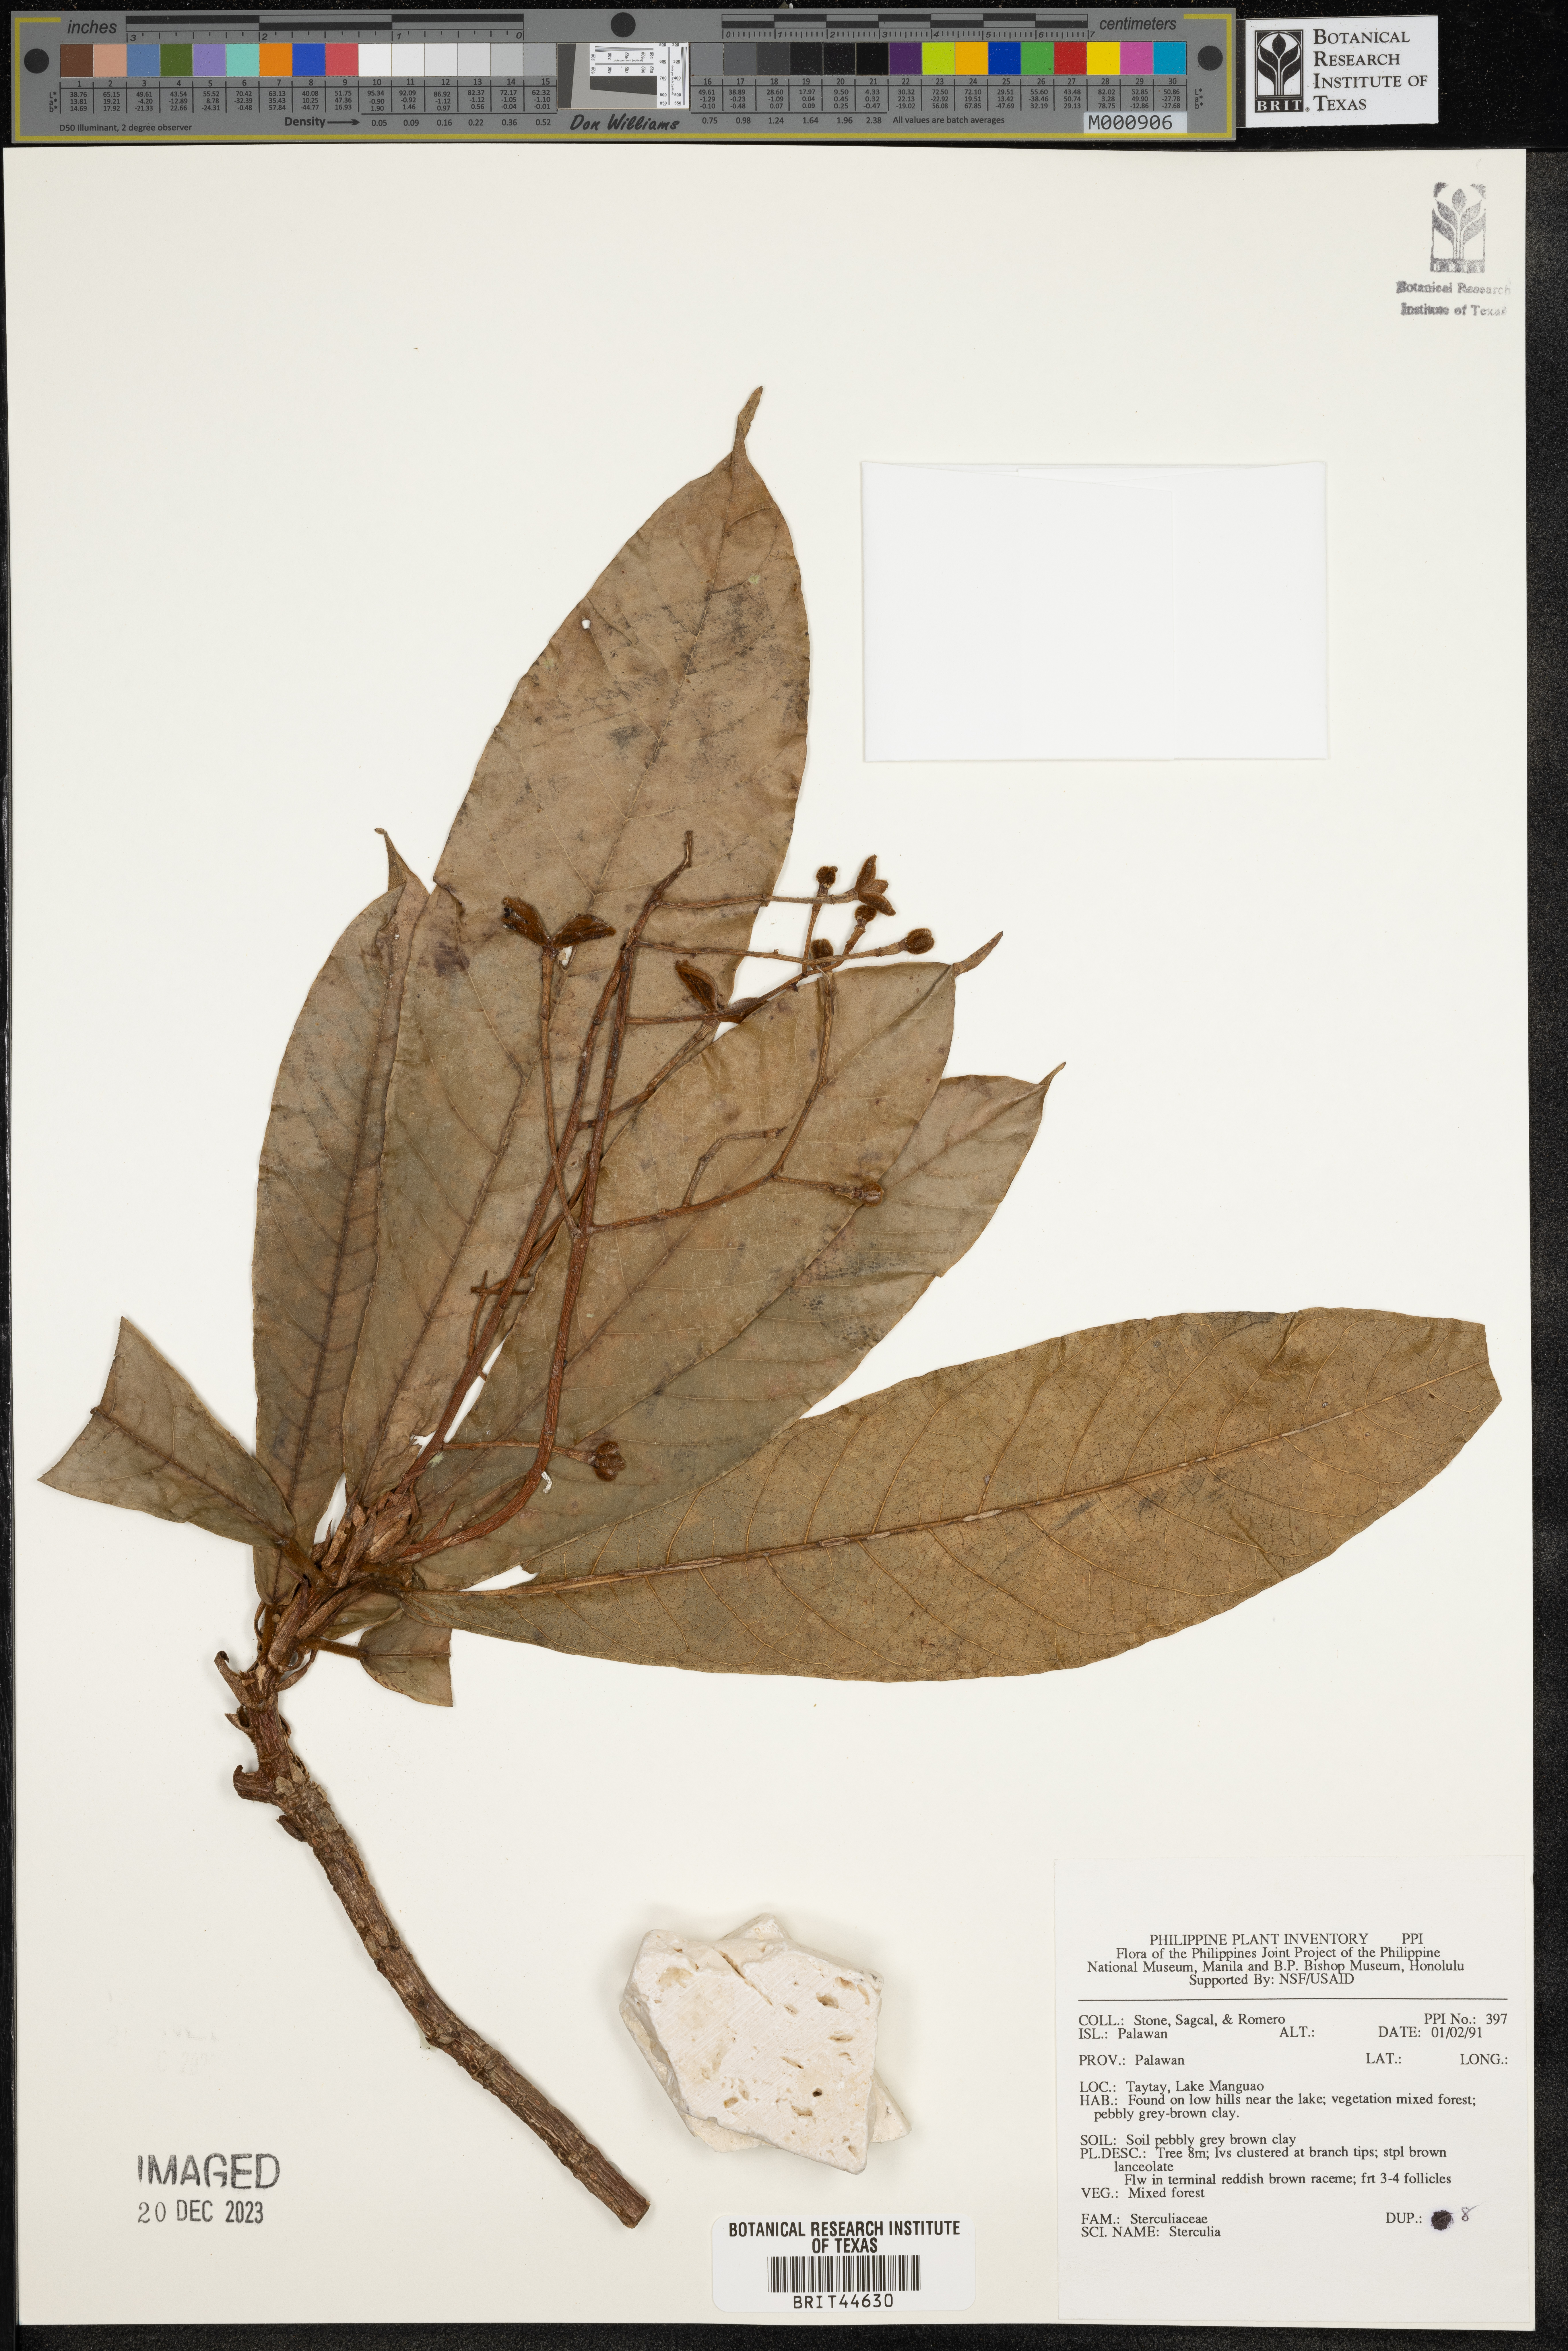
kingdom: Plantae
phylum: Tracheophyta
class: Magnoliopsida
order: Malvales
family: Malvaceae
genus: Sterculia
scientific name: Sterculia
